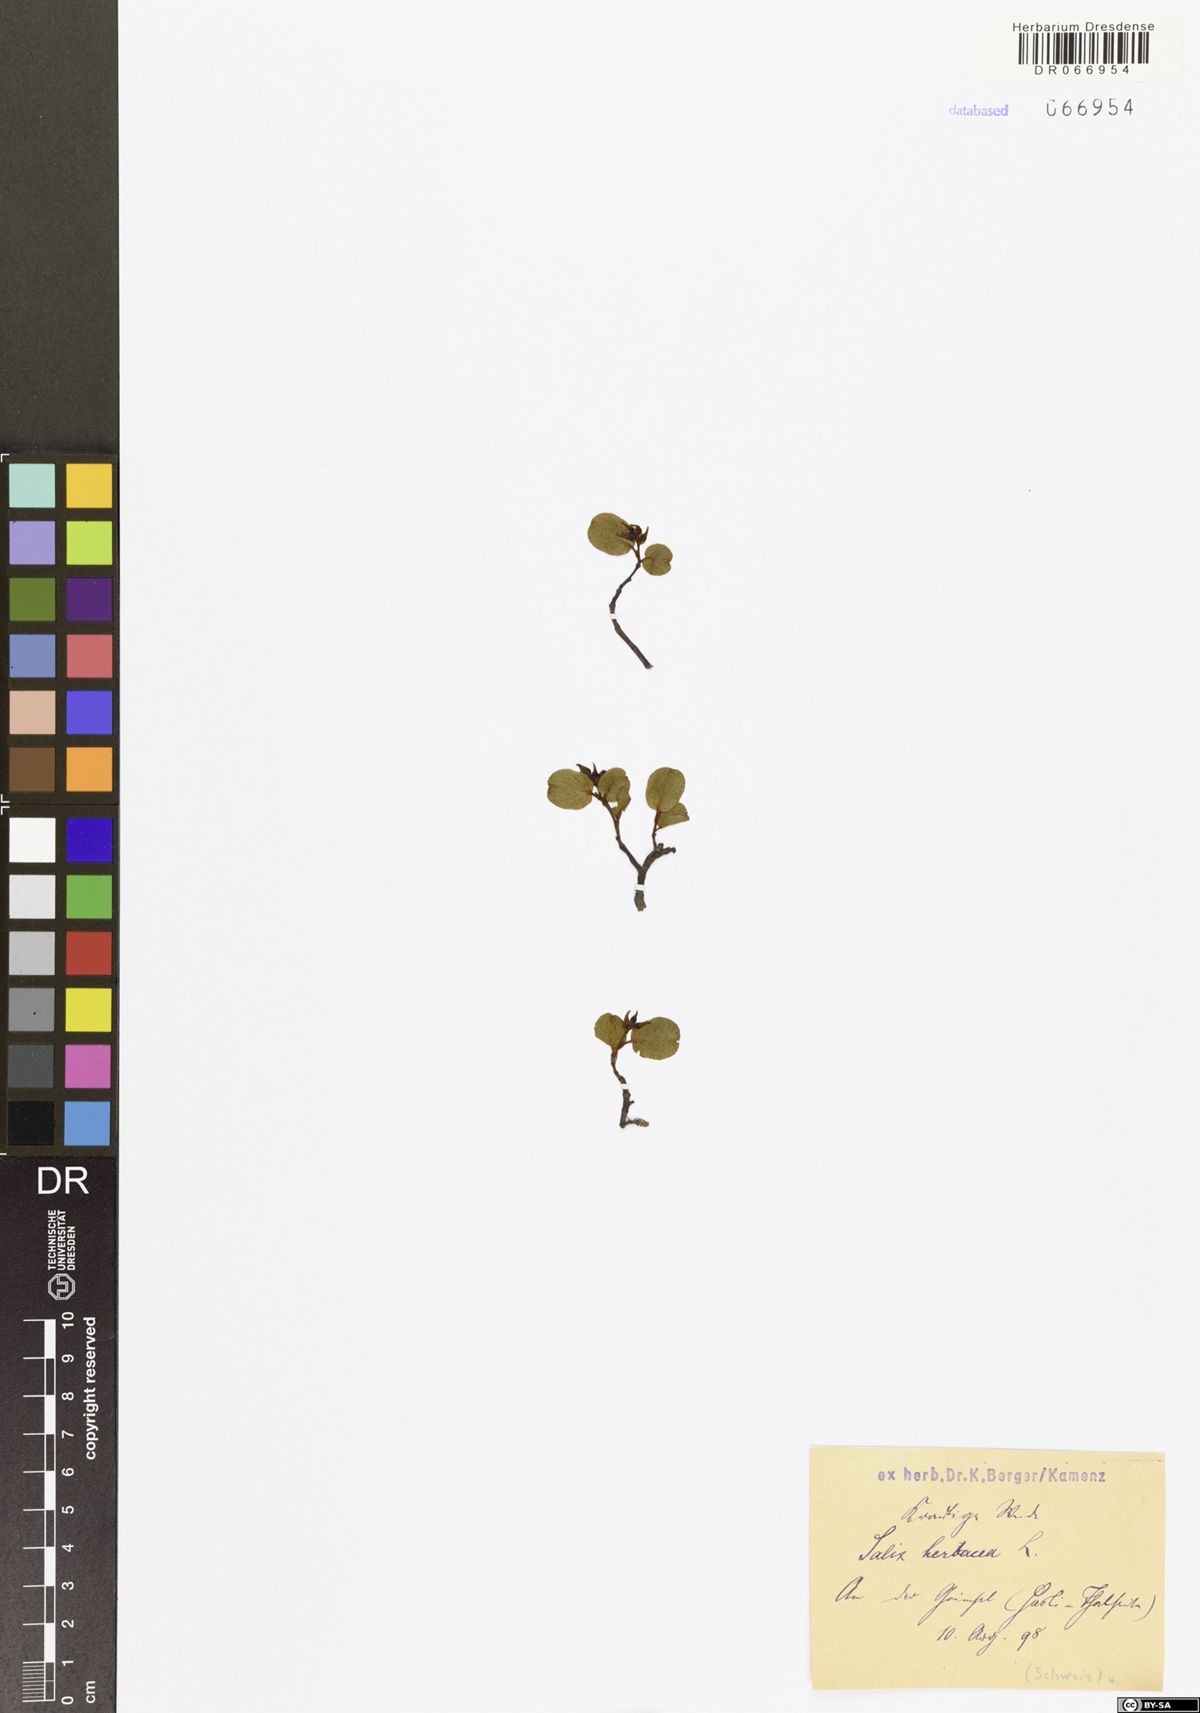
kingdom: Plantae
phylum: Tracheophyta
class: Magnoliopsida
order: Malpighiales
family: Salicaceae
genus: Salix
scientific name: Salix herbacea
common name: Dwarf willow
